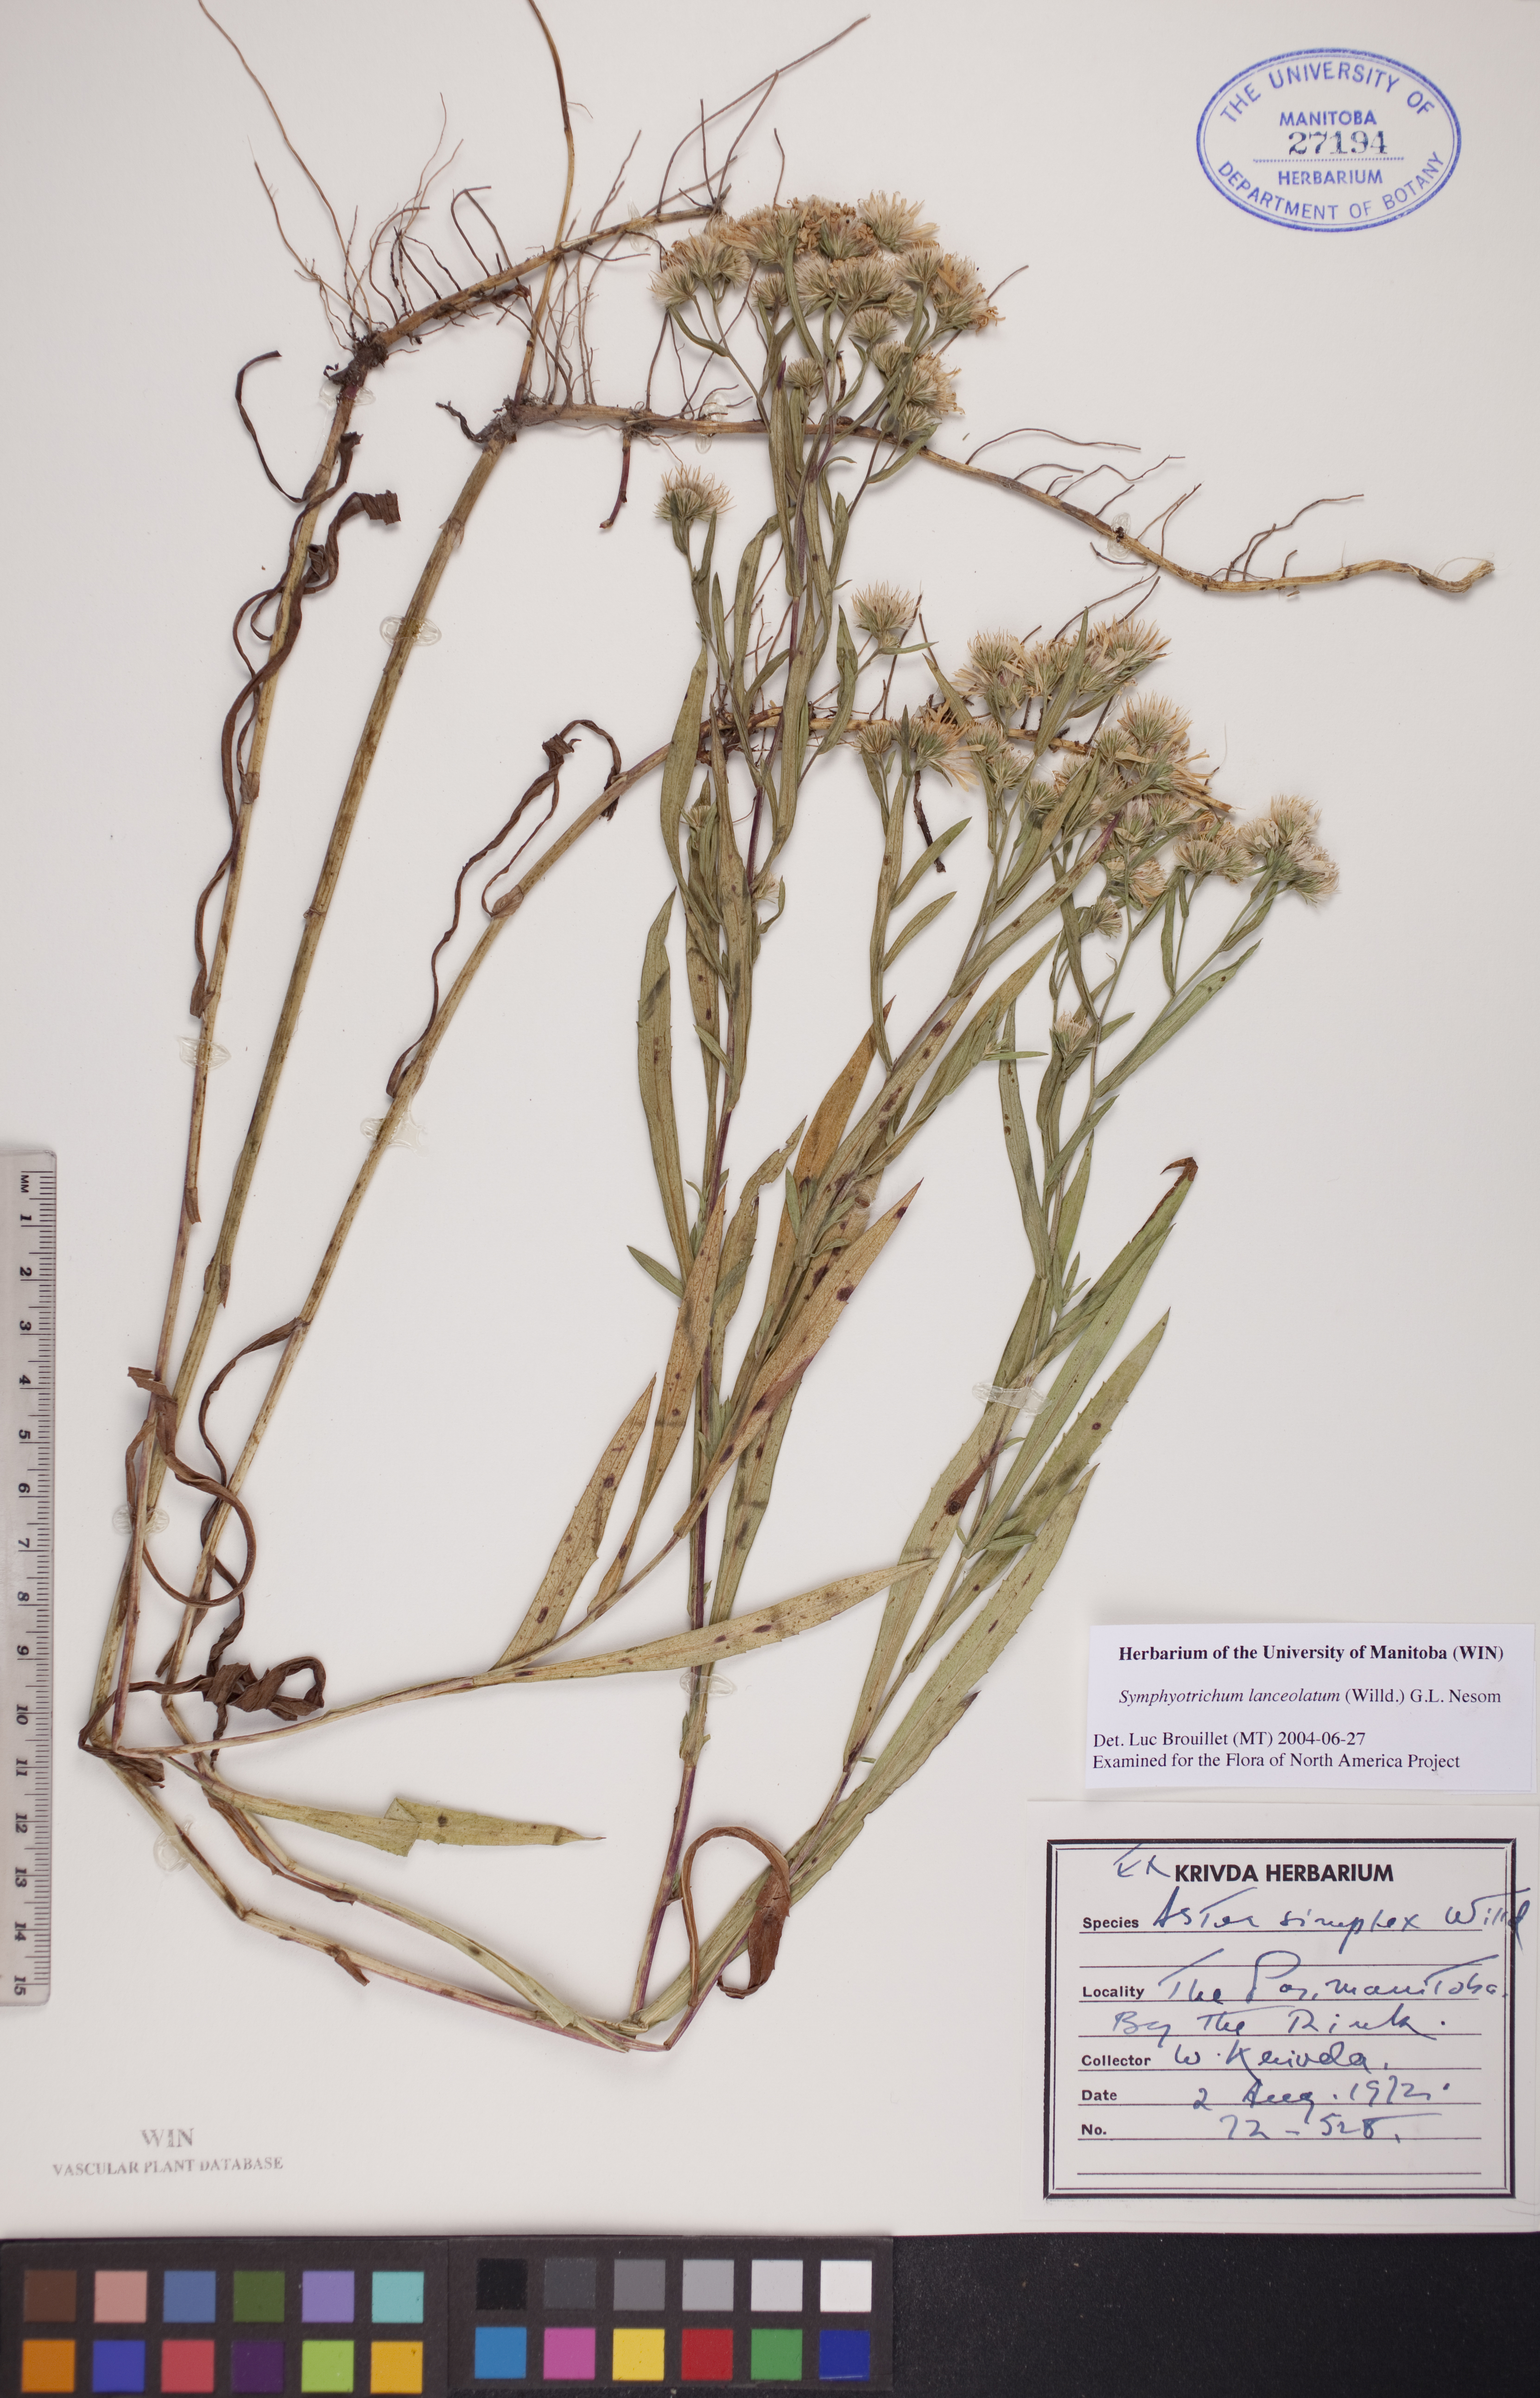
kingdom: Plantae
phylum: Tracheophyta
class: Magnoliopsida
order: Asterales
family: Asteraceae
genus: Symphyotrichum
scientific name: Symphyotrichum lanceolatum
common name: Panicled aster
